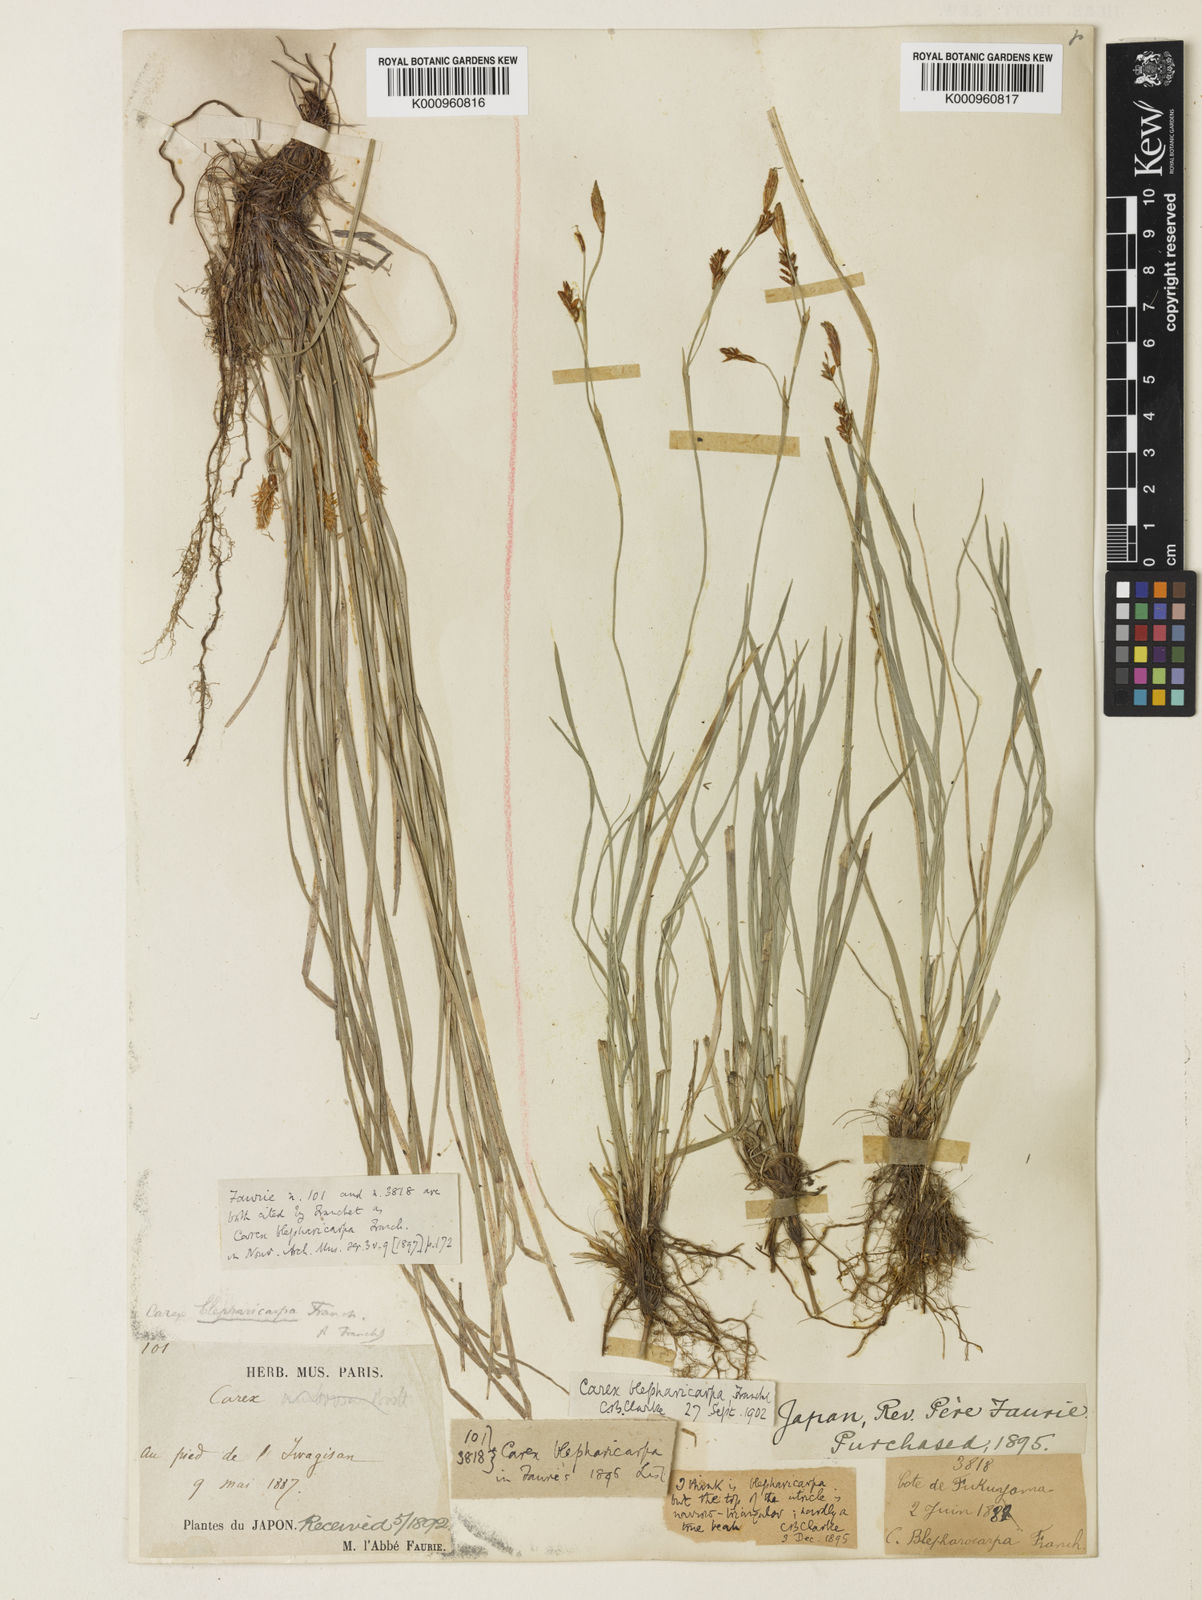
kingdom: Plantae
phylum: Tracheophyta
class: Liliopsida
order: Poales
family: Cyperaceae
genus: Carex
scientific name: Carex blepharicarpa
